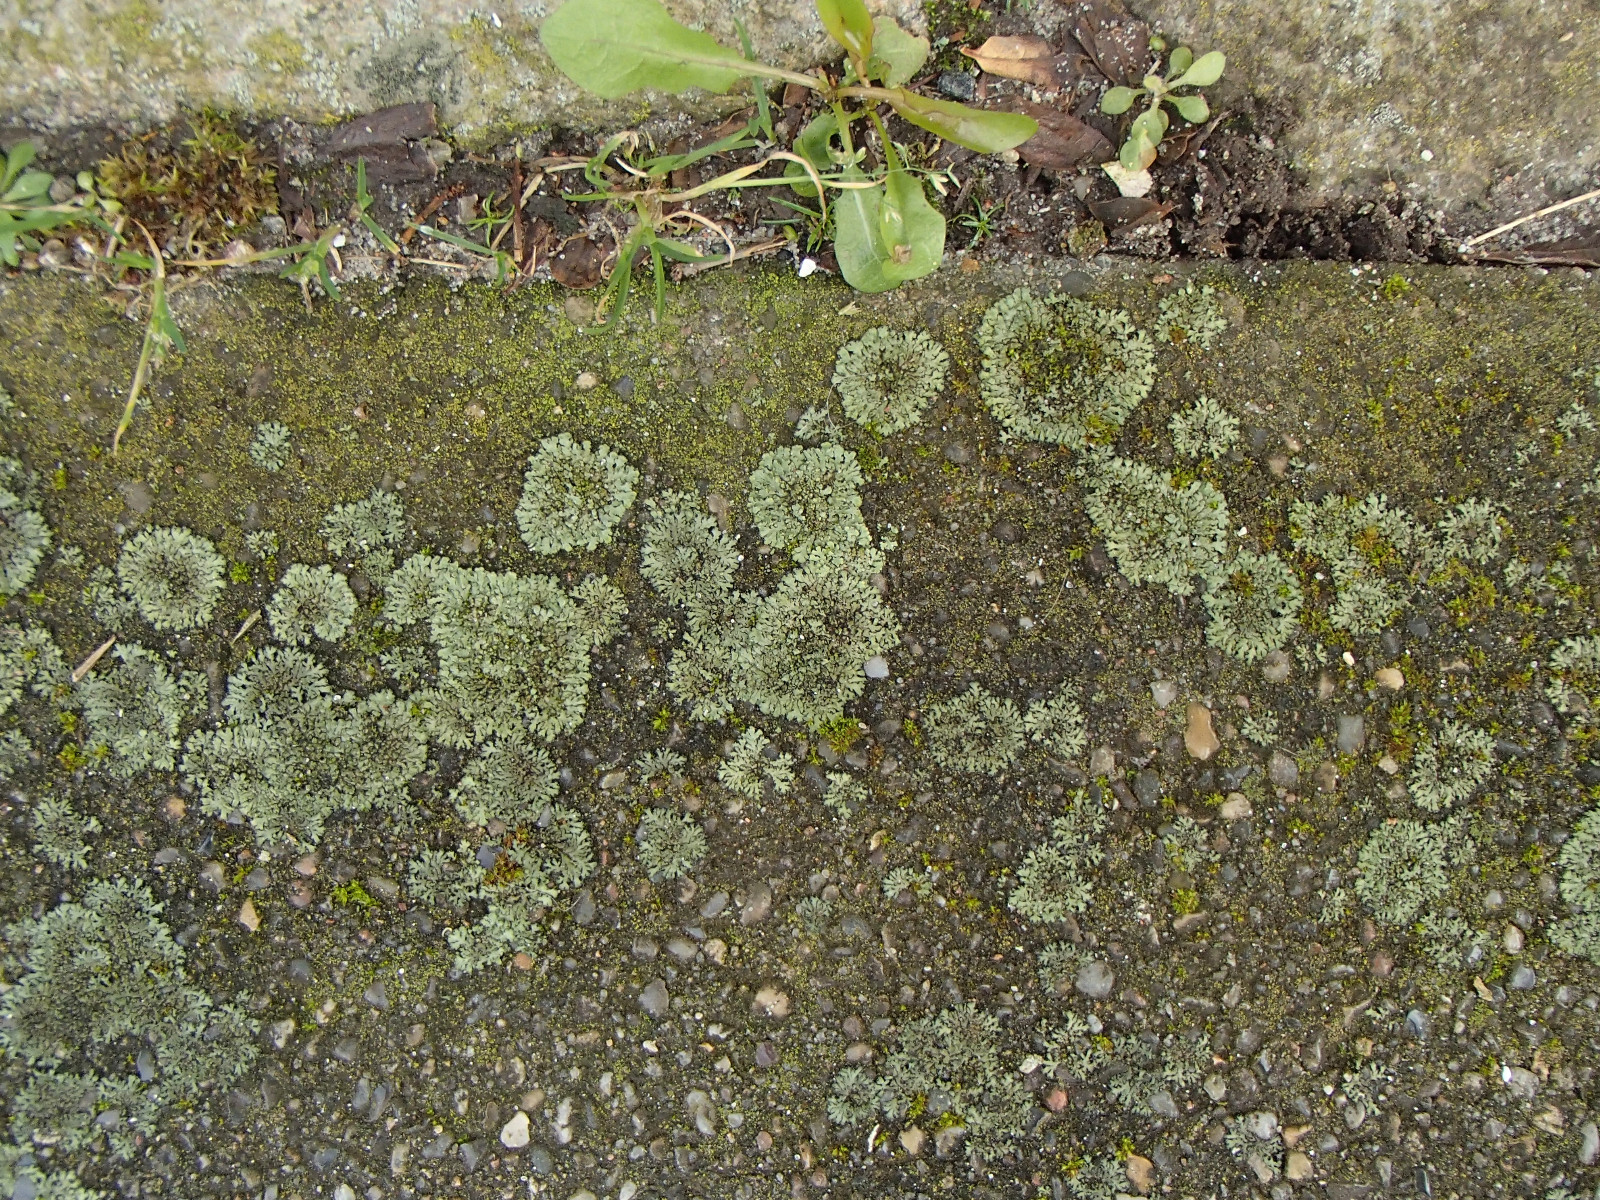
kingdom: Fungi
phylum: Ascomycota
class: Lecanoromycetes
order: Caliciales
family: Physciaceae
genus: Phaeophyscia
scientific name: Phaeophyscia orbicularis
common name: grågrøn rosetlav
